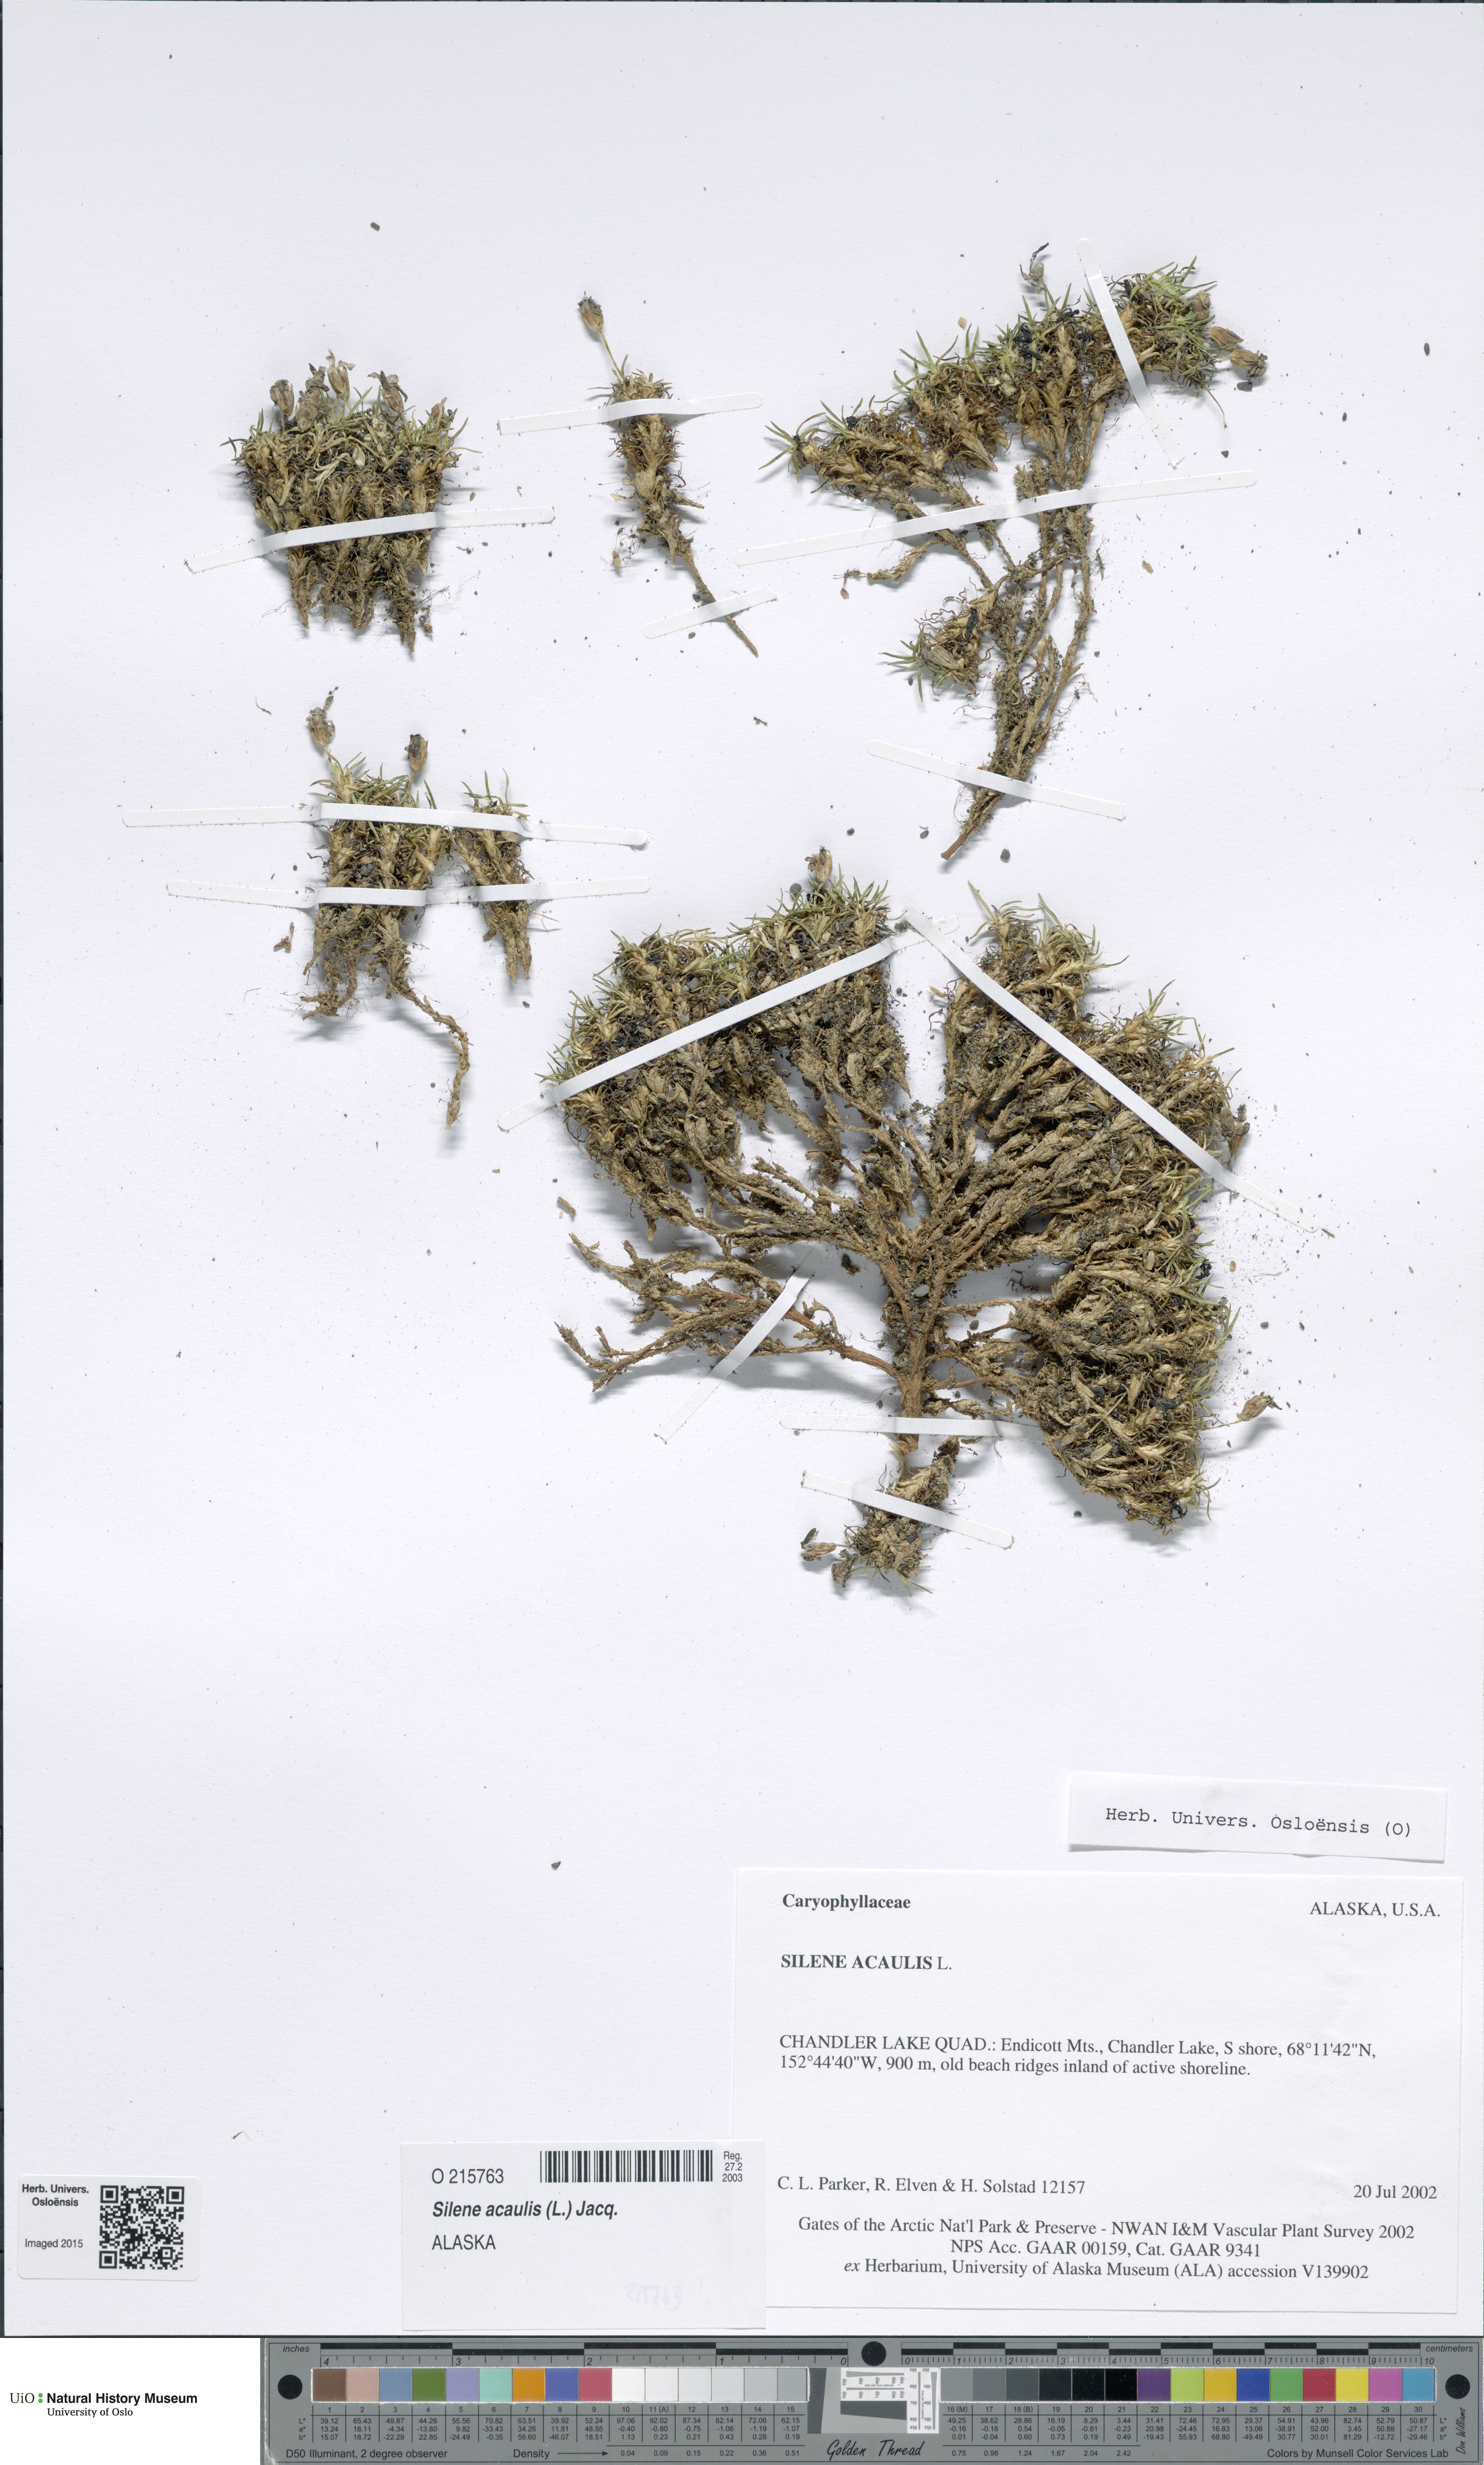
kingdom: Plantae
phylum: Tracheophyta
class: Magnoliopsida
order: Caryophyllales
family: Caryophyllaceae
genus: Silene
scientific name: Silene acaulis
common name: Moss campion
